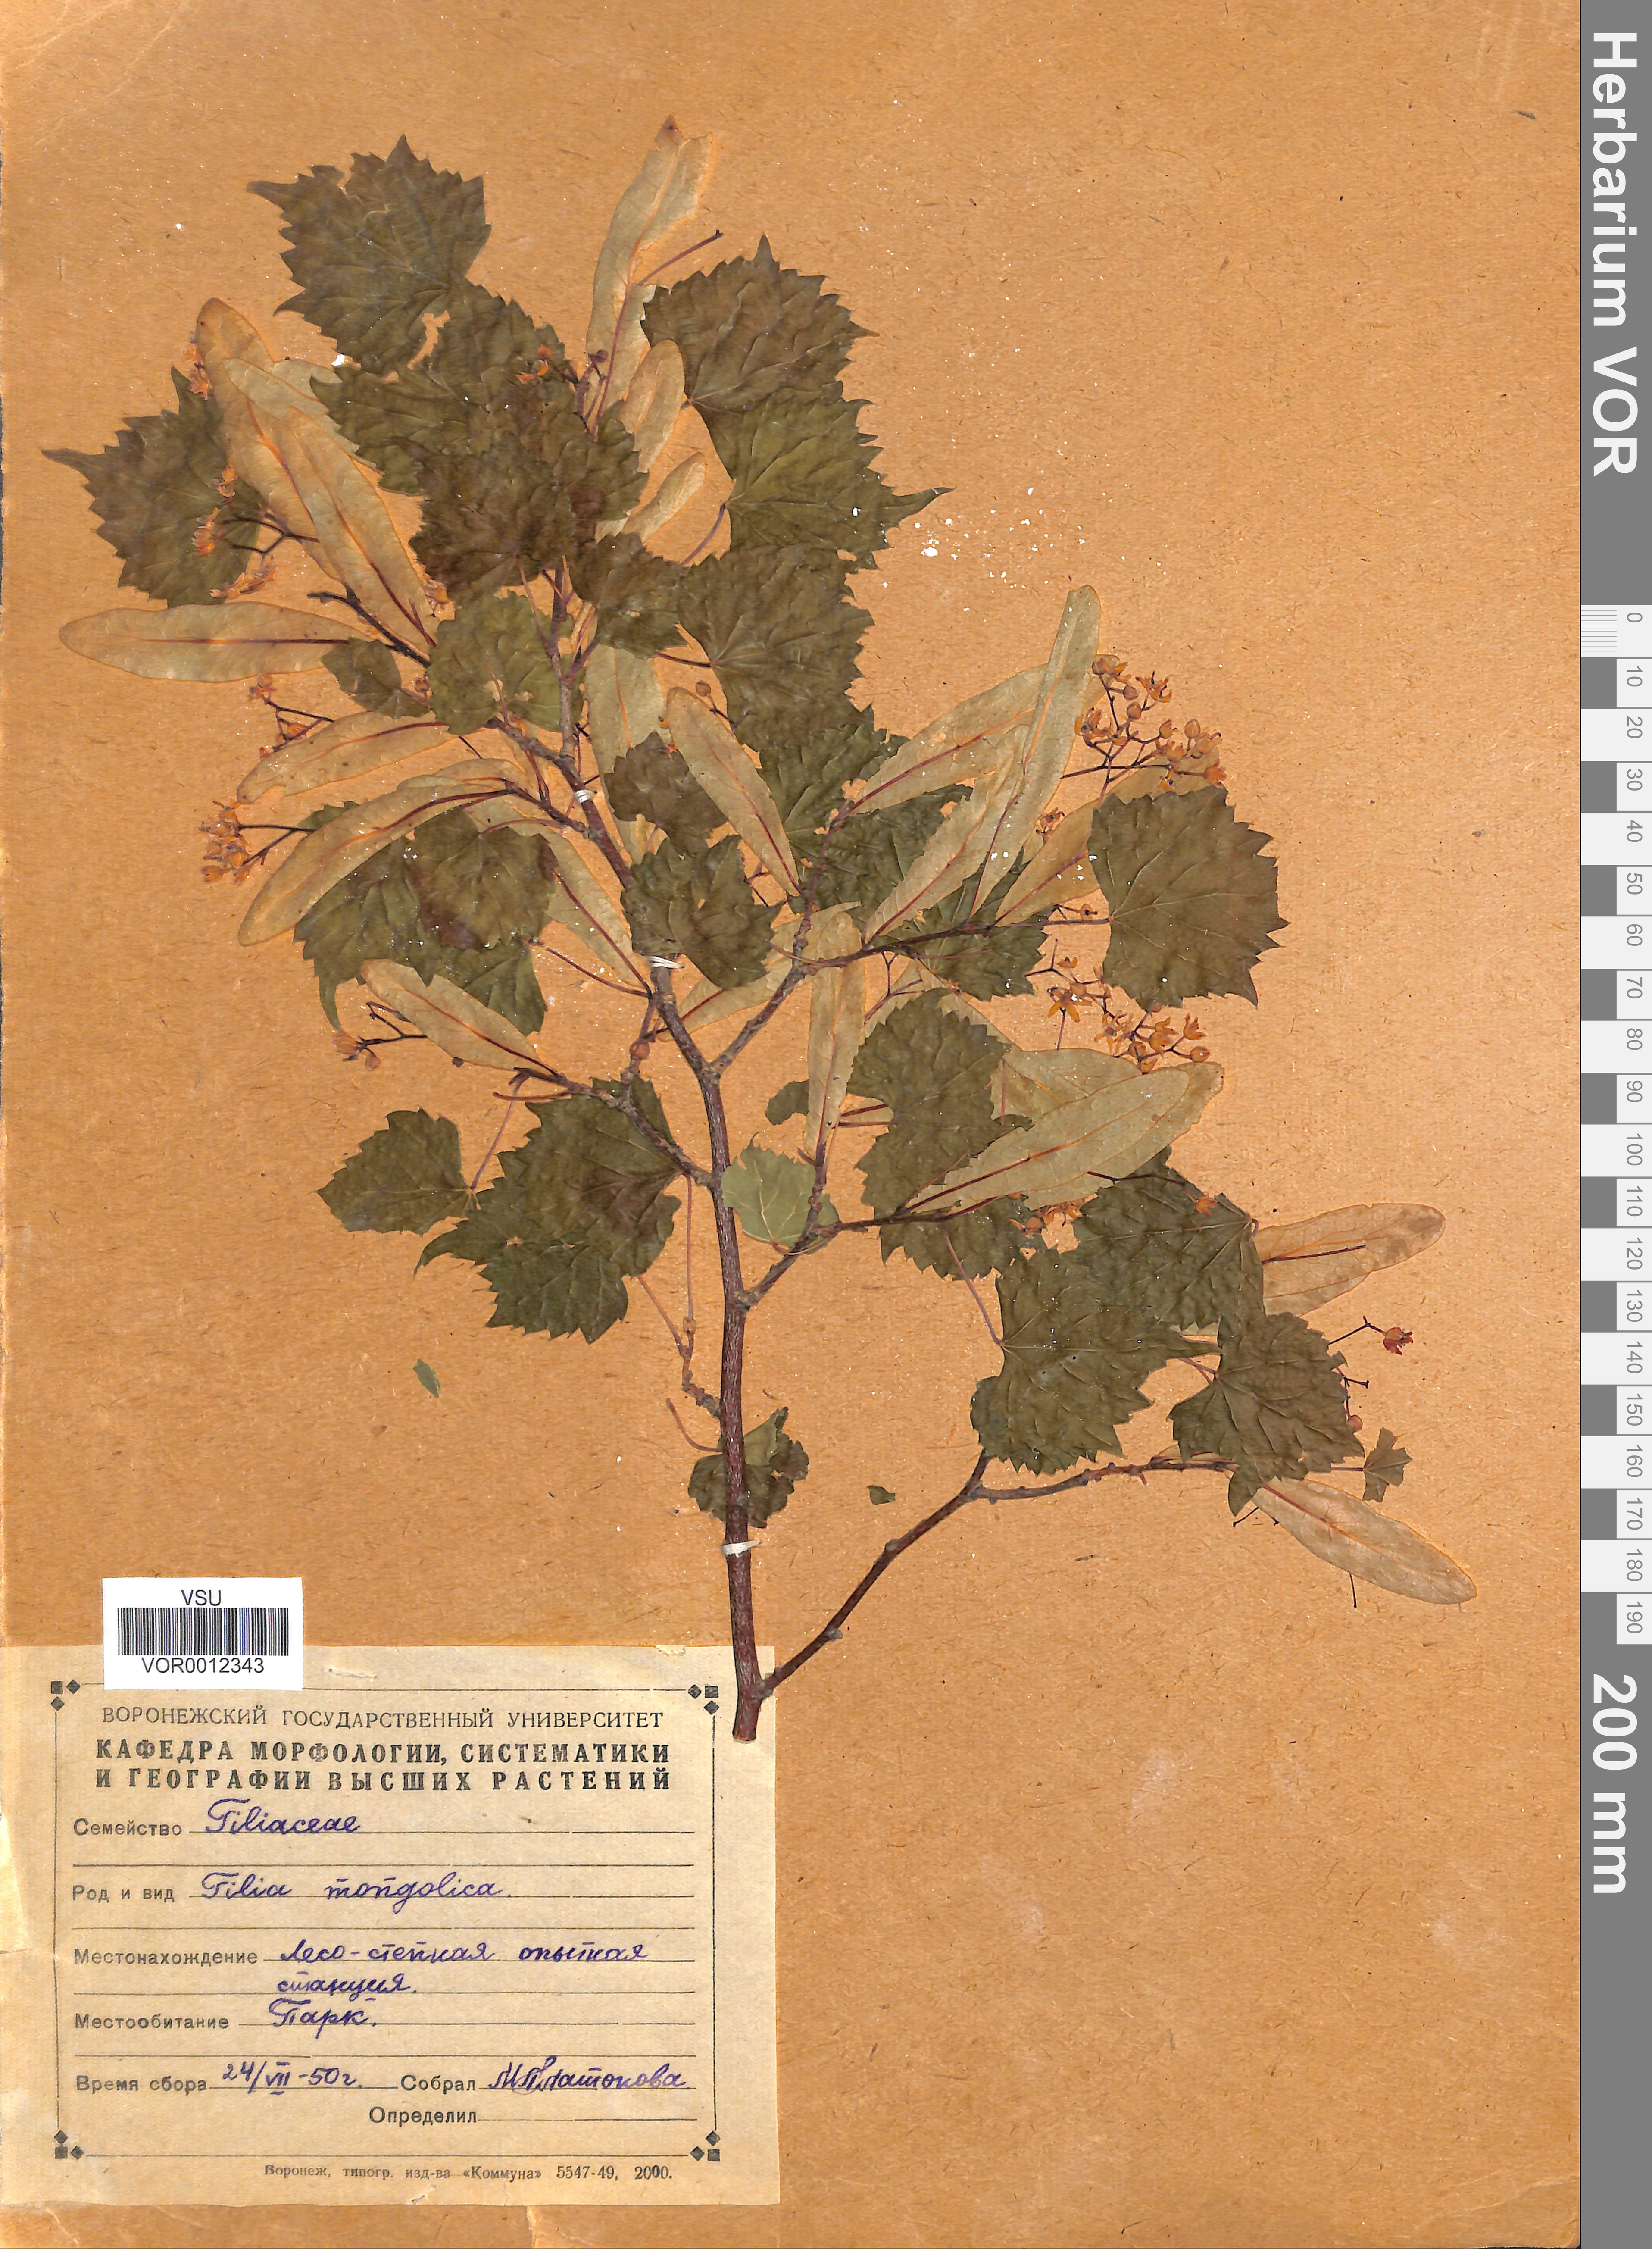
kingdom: Plantae
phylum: Tracheophyta
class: Magnoliopsida
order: Malvales
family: Malvaceae
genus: Tilia
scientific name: Tilia mongolica
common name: Mongolian lime
